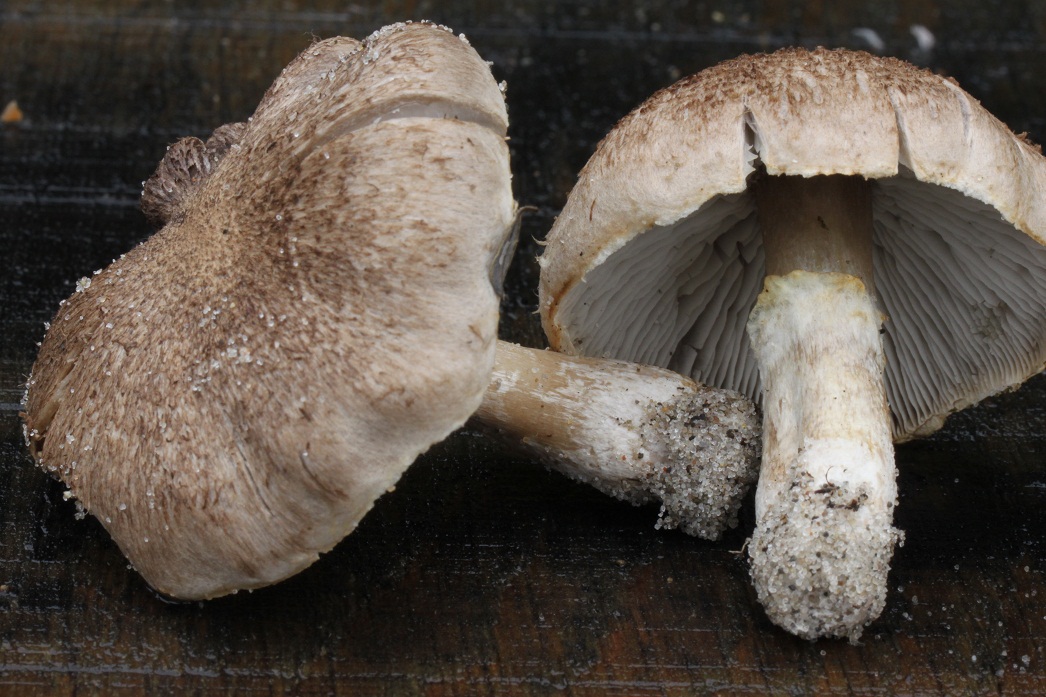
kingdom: Fungi
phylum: Basidiomycota
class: Agaricomycetes
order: Agaricales
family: Tricholomataceae
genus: Tricholoma
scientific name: Tricholoma cingulatum
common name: ring-ridderhat
